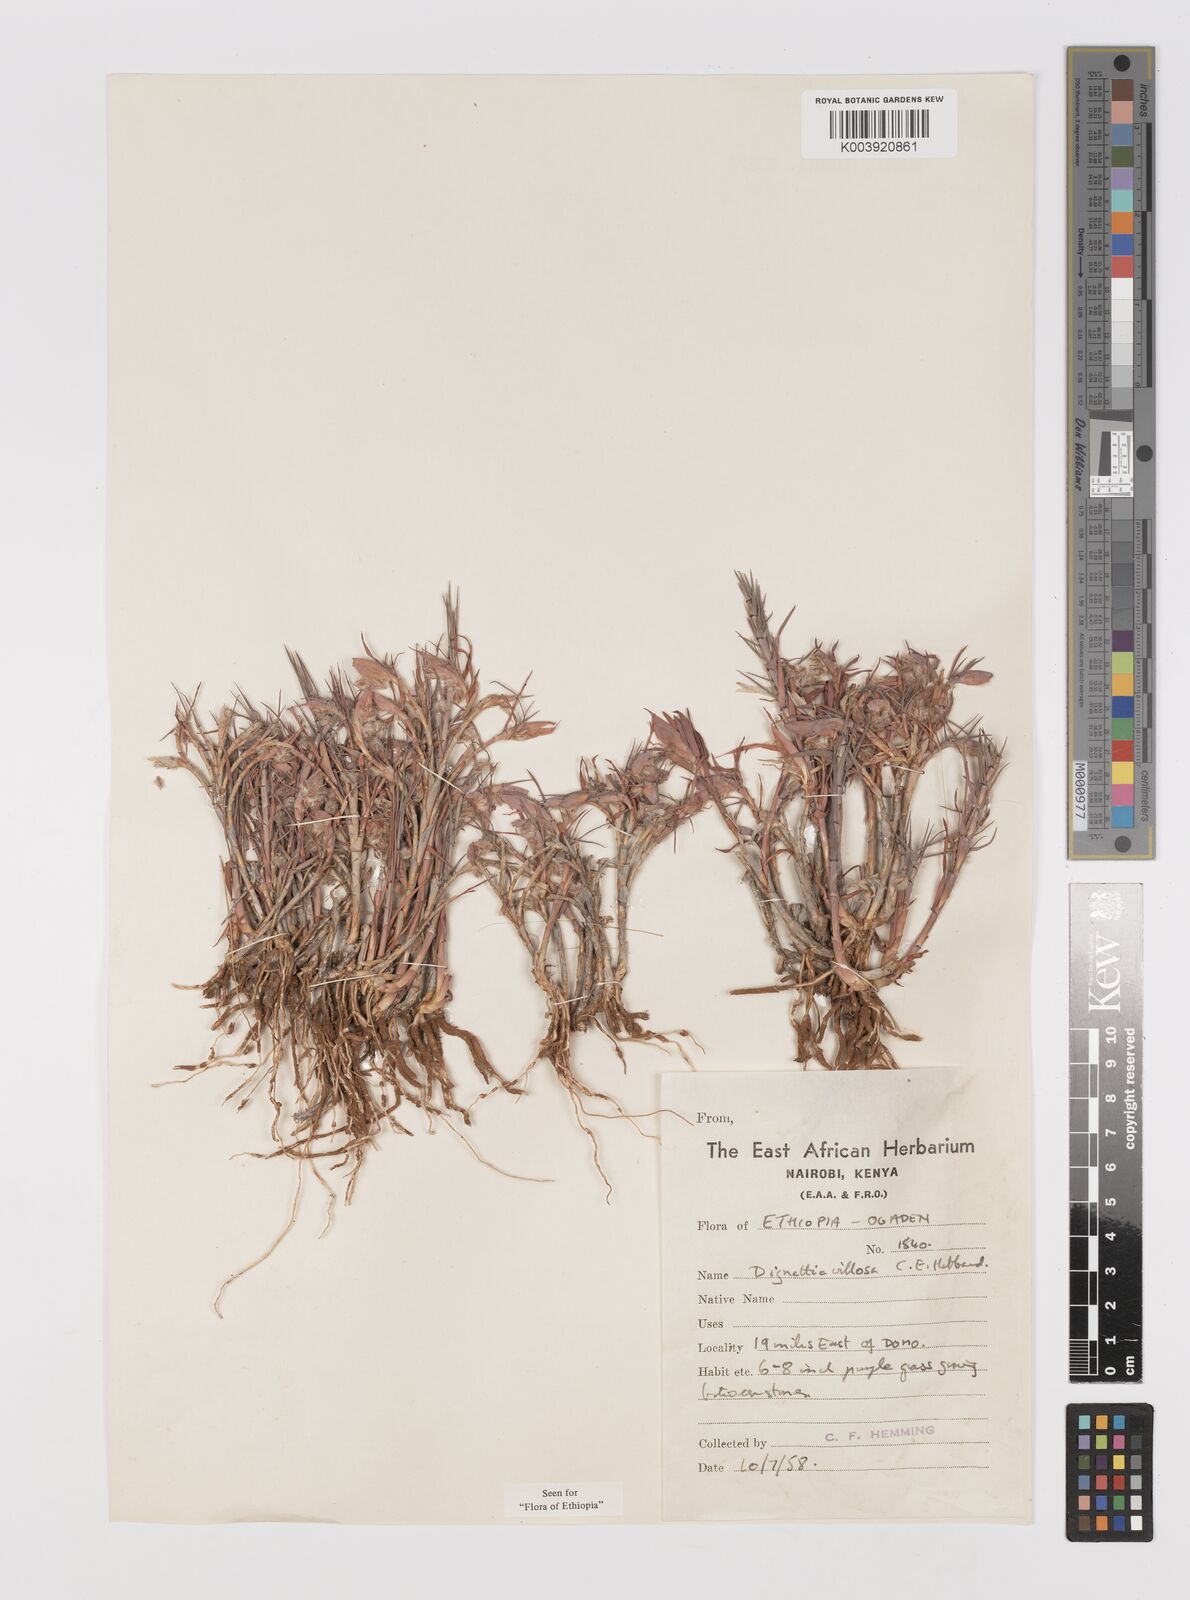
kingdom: Plantae
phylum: Tracheophyta
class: Liliopsida
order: Poales
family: Poaceae
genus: Dignathia
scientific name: Dignathia villosa
